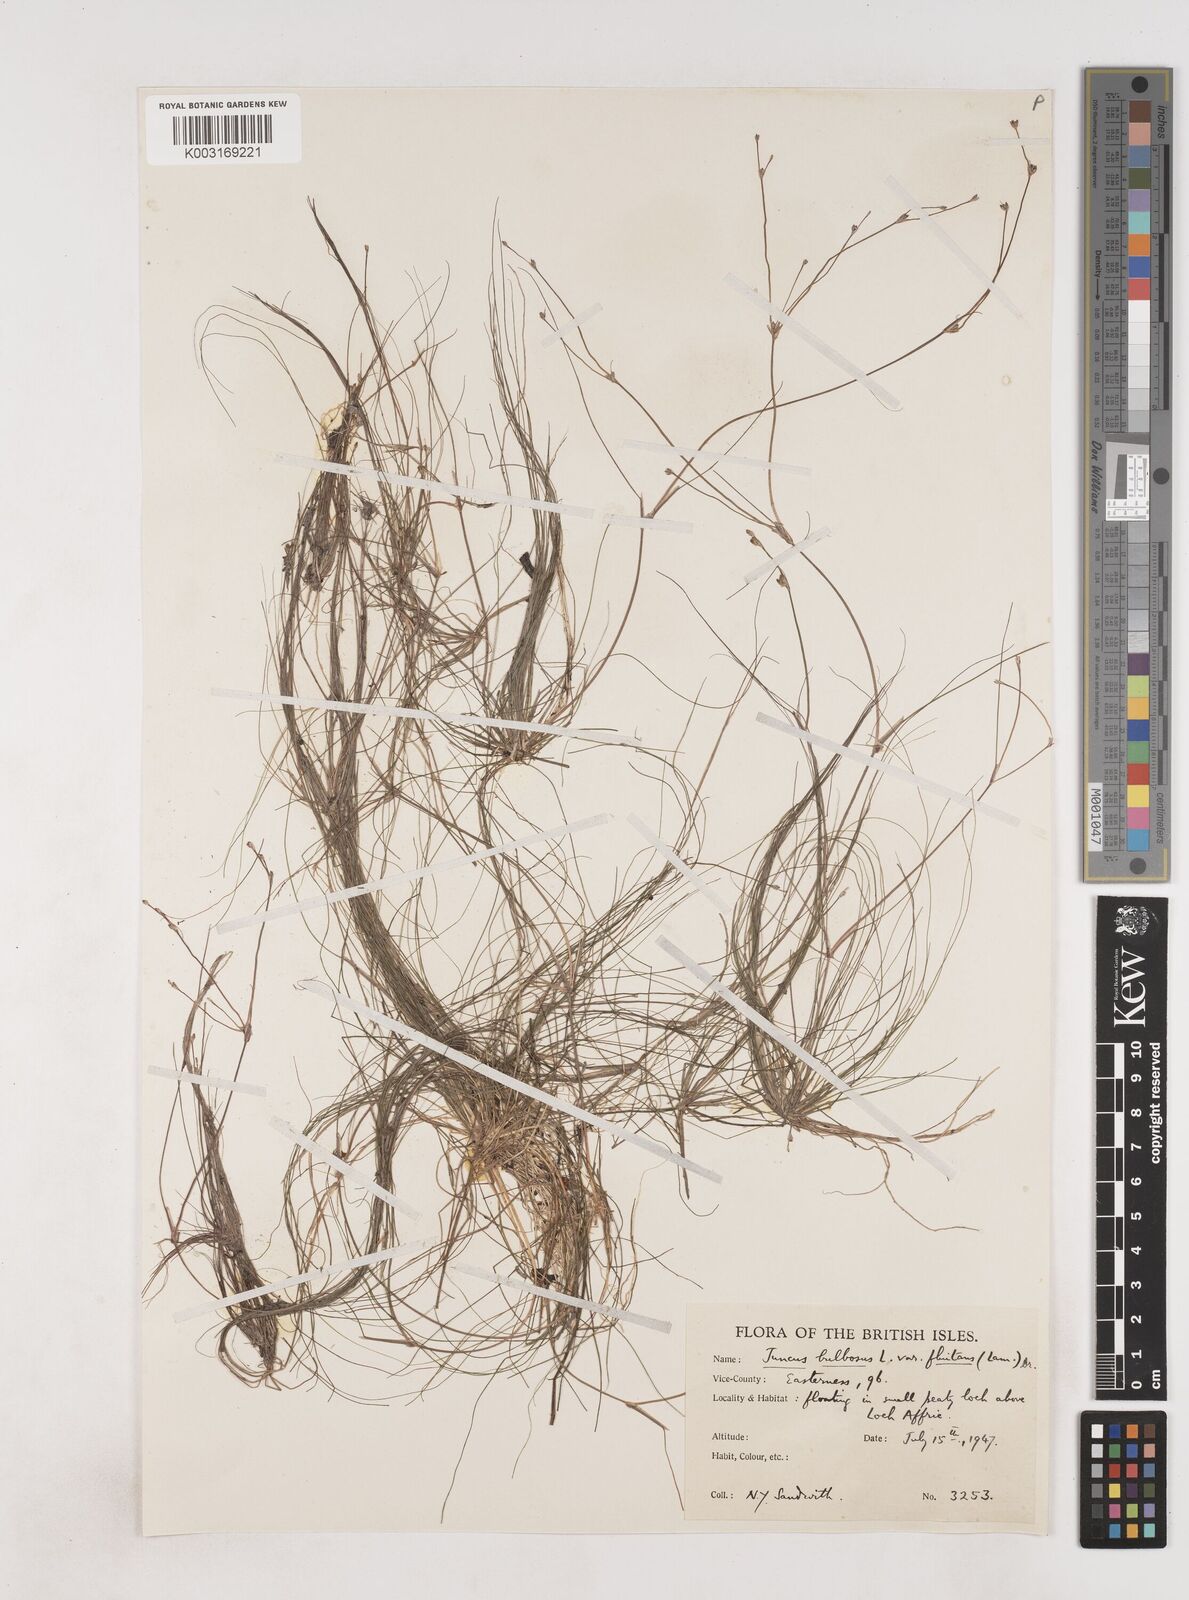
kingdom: Plantae
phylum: Tracheophyta
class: Liliopsida
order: Poales
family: Juncaceae
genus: Juncus
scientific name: Juncus bulbosus
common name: Bulbous rush
